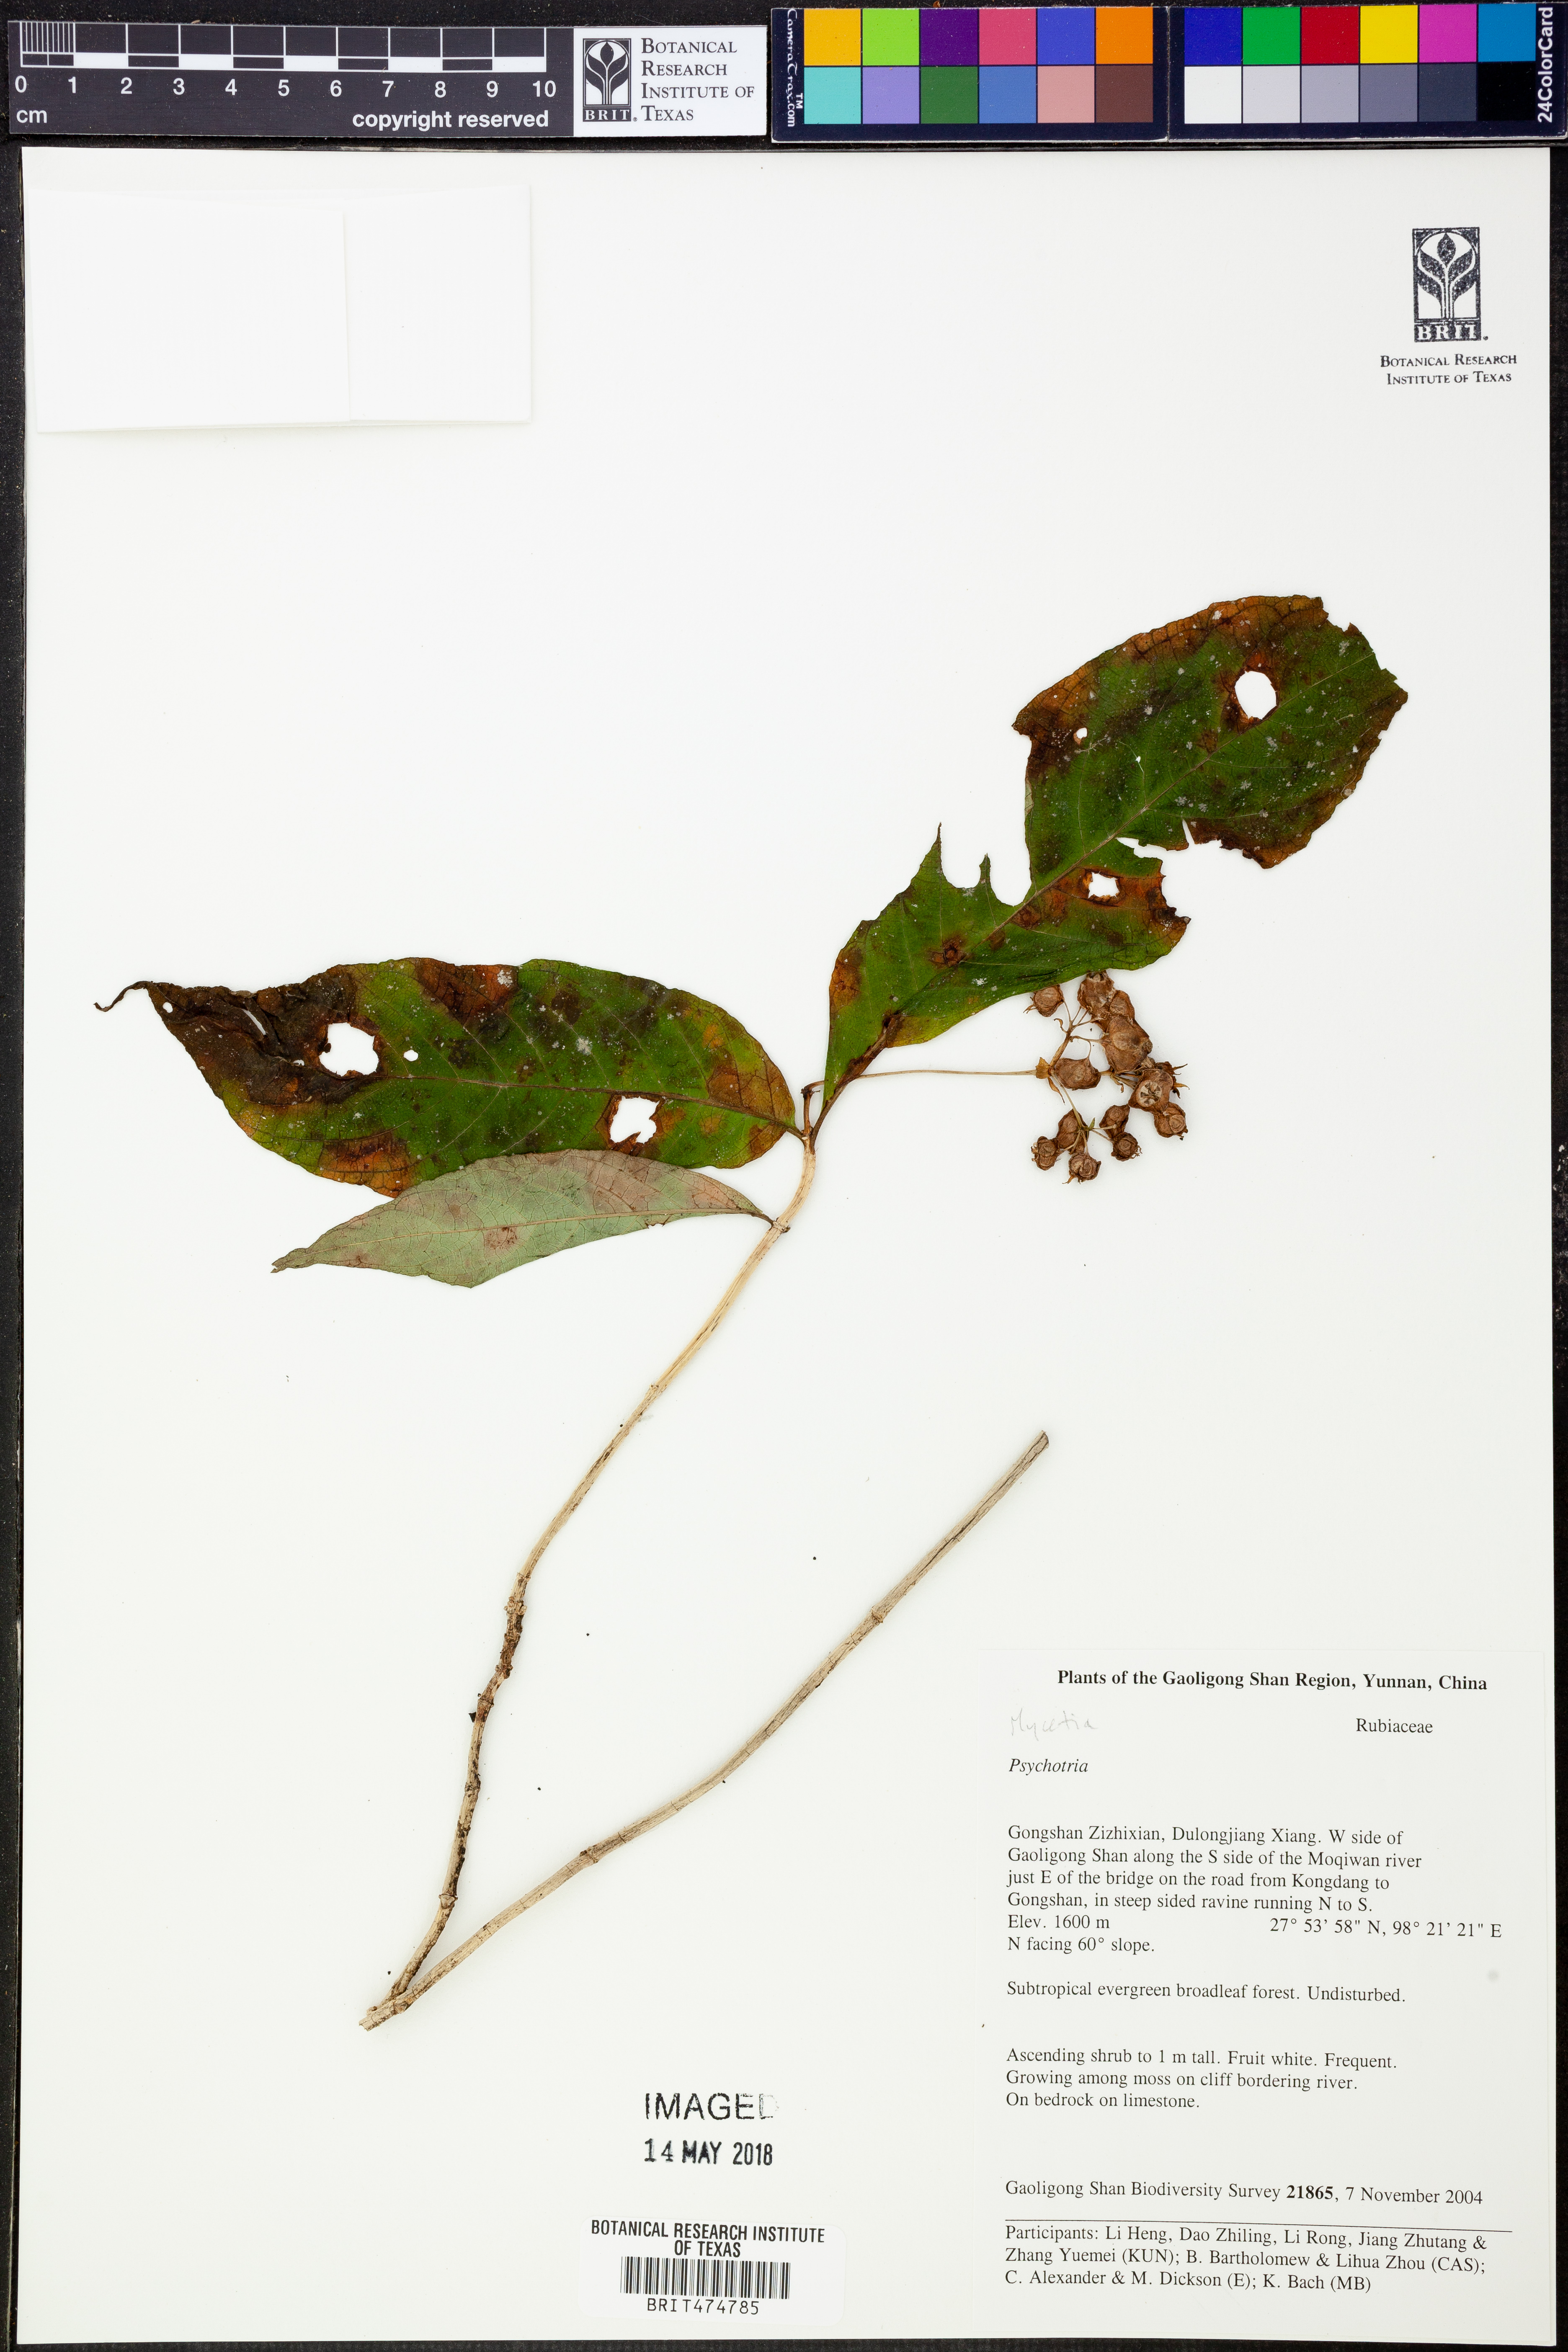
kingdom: Plantae
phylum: Tracheophyta
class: Magnoliopsida
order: Gentianales
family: Rubiaceae
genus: Psychotria
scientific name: Psychotria
